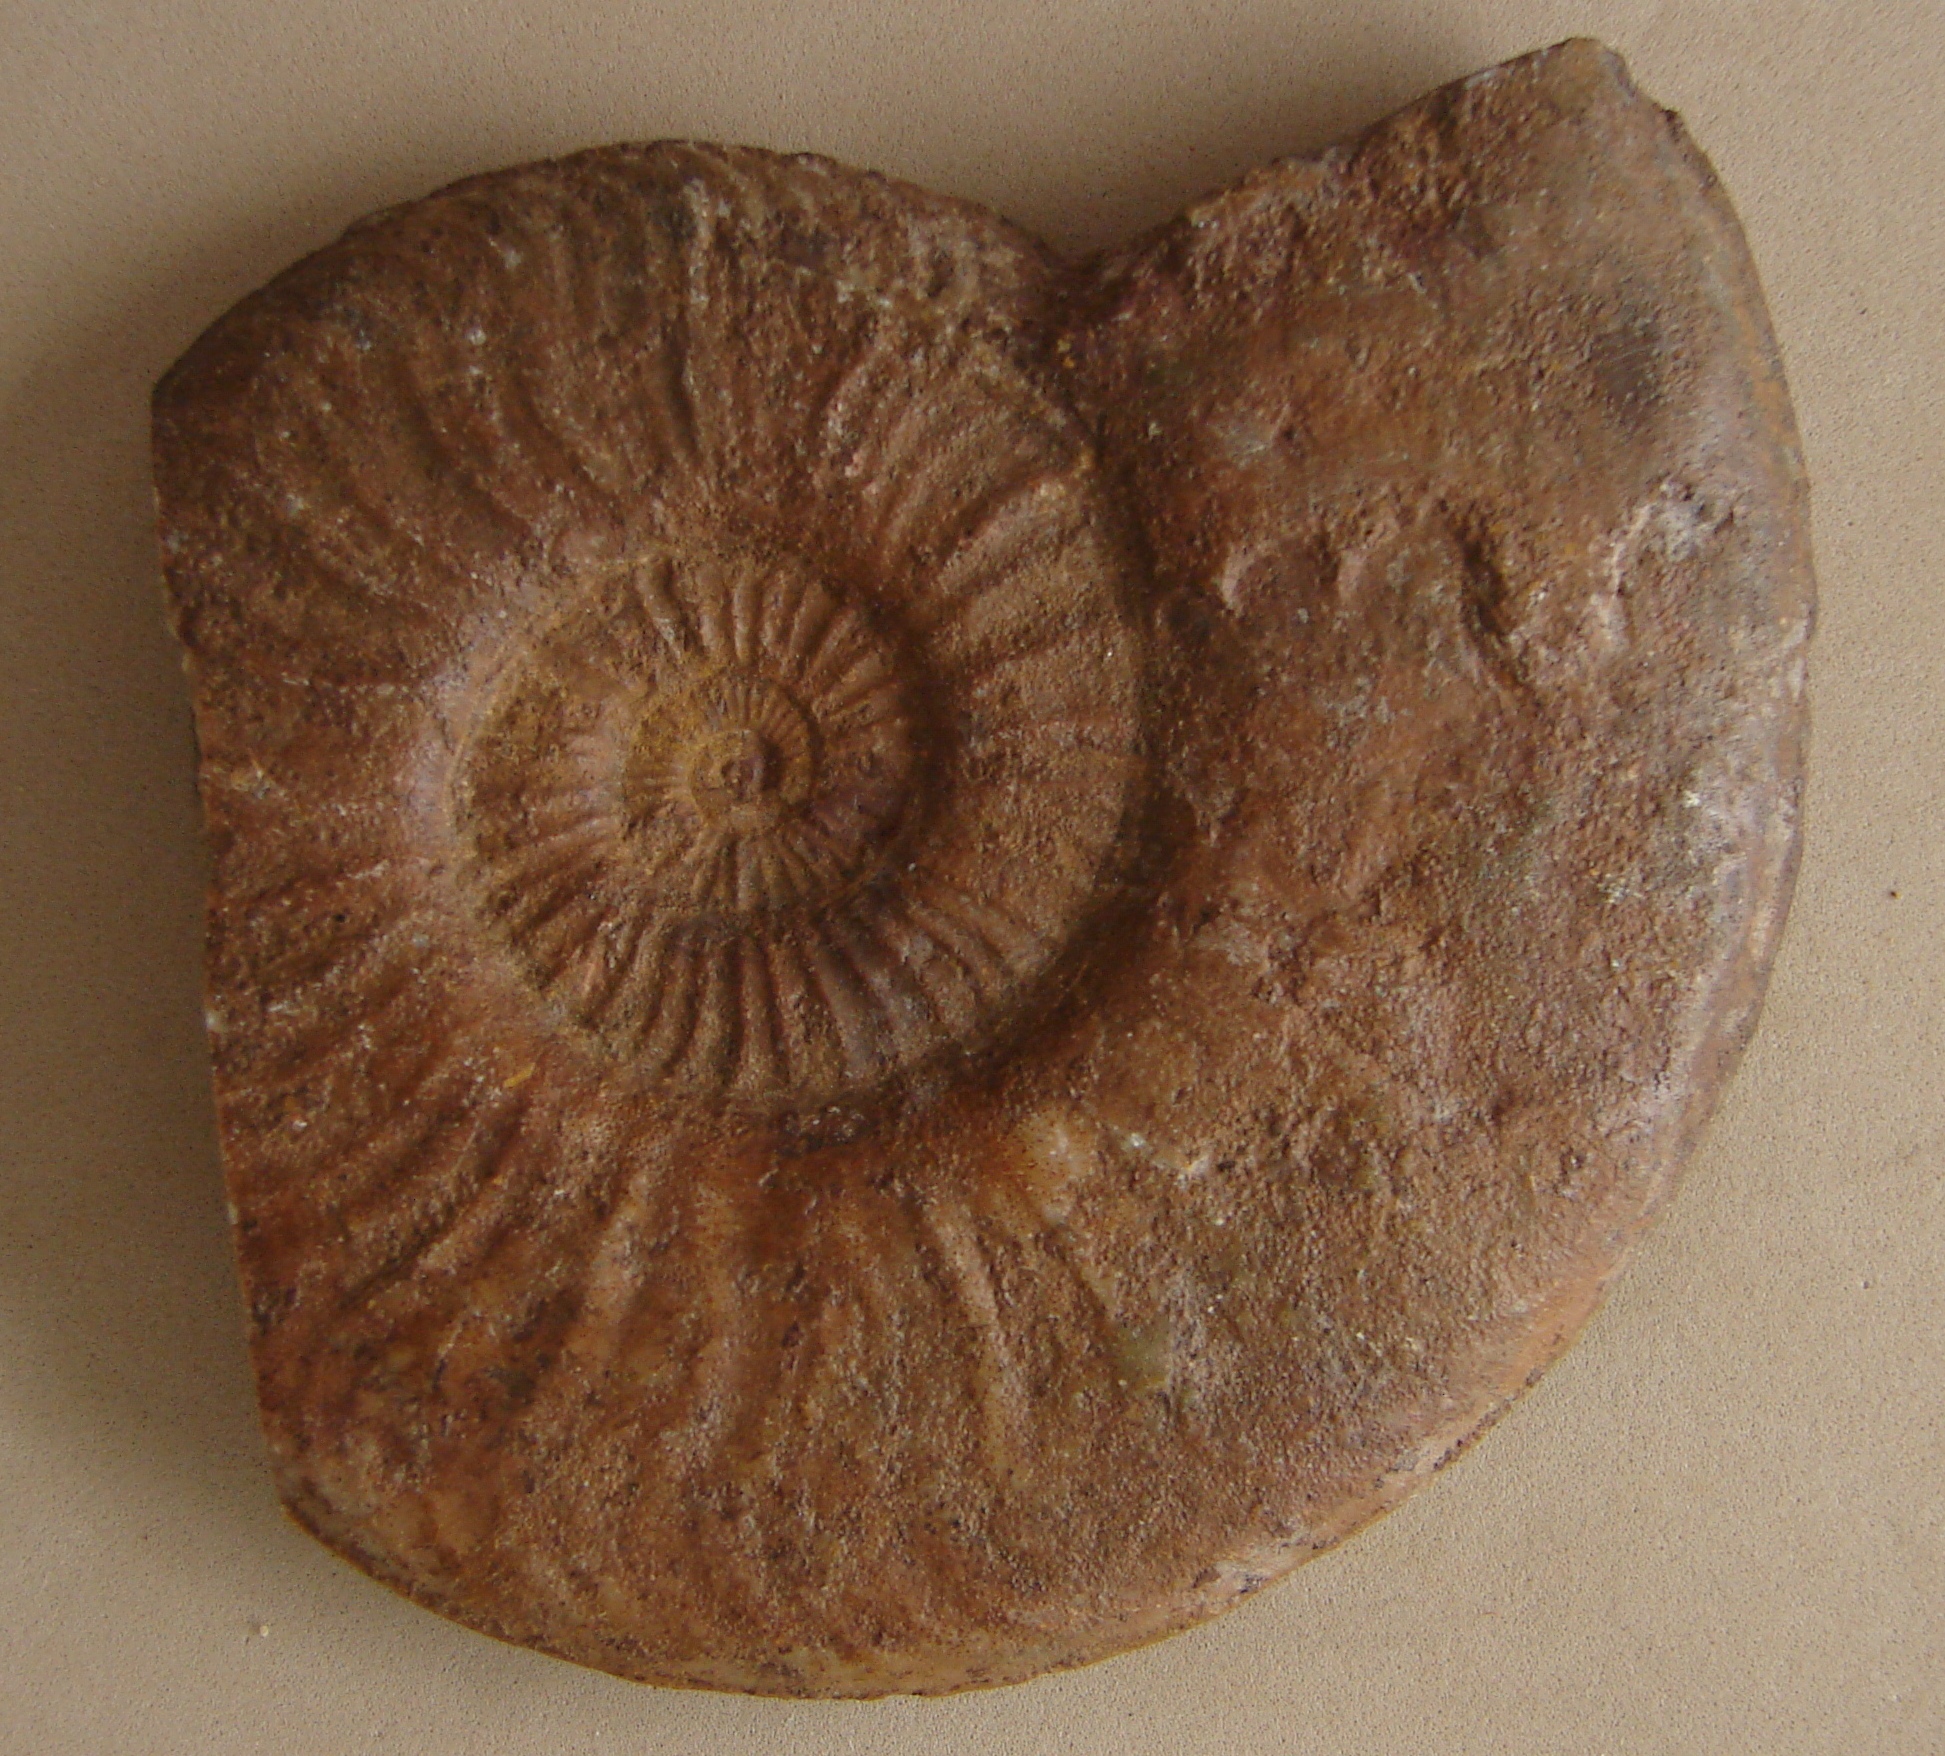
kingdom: Animalia
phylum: Mollusca
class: Cephalopoda
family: Hildoceratidae
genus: Pleydellia
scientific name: Pleydellia aalensis
